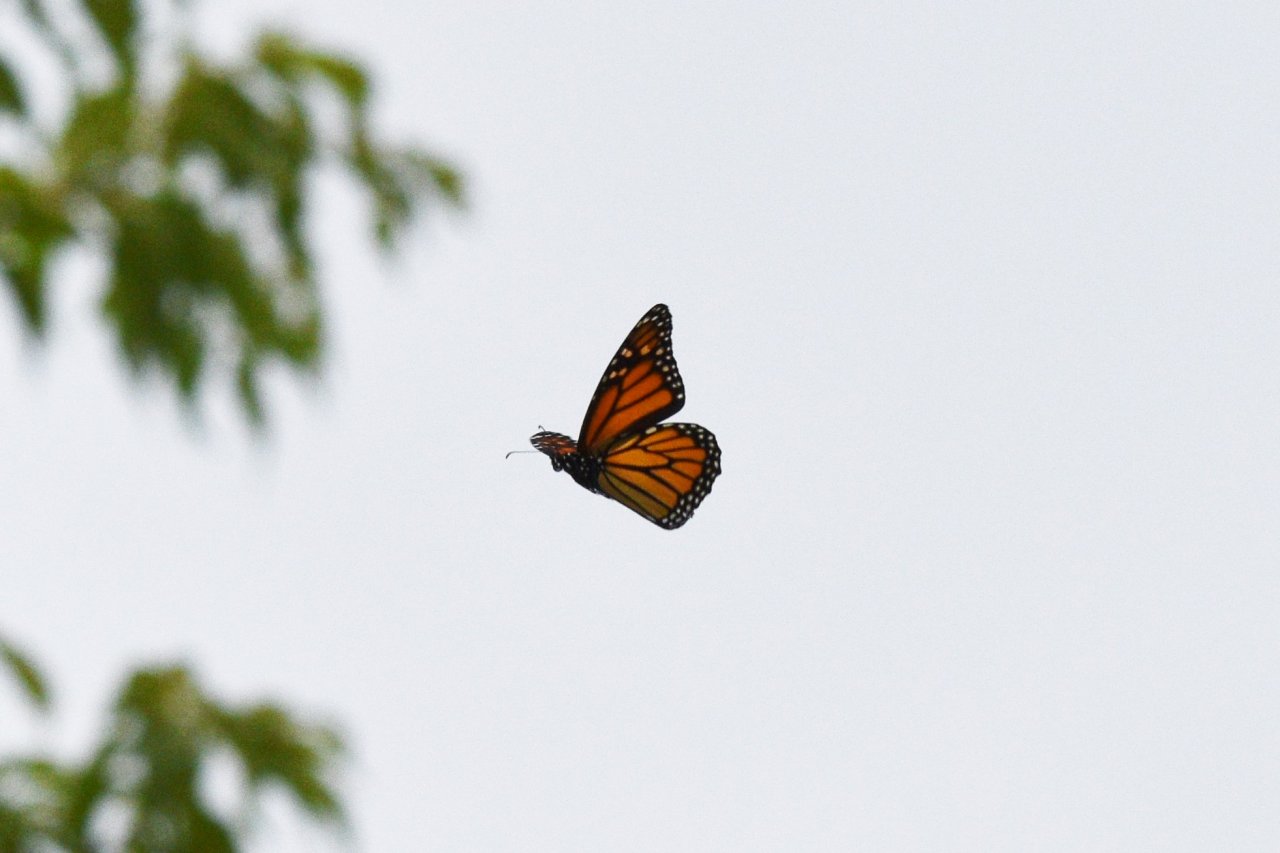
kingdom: Animalia
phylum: Arthropoda
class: Insecta
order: Lepidoptera
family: Nymphalidae
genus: Danaus
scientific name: Danaus plexippus
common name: Monarch
